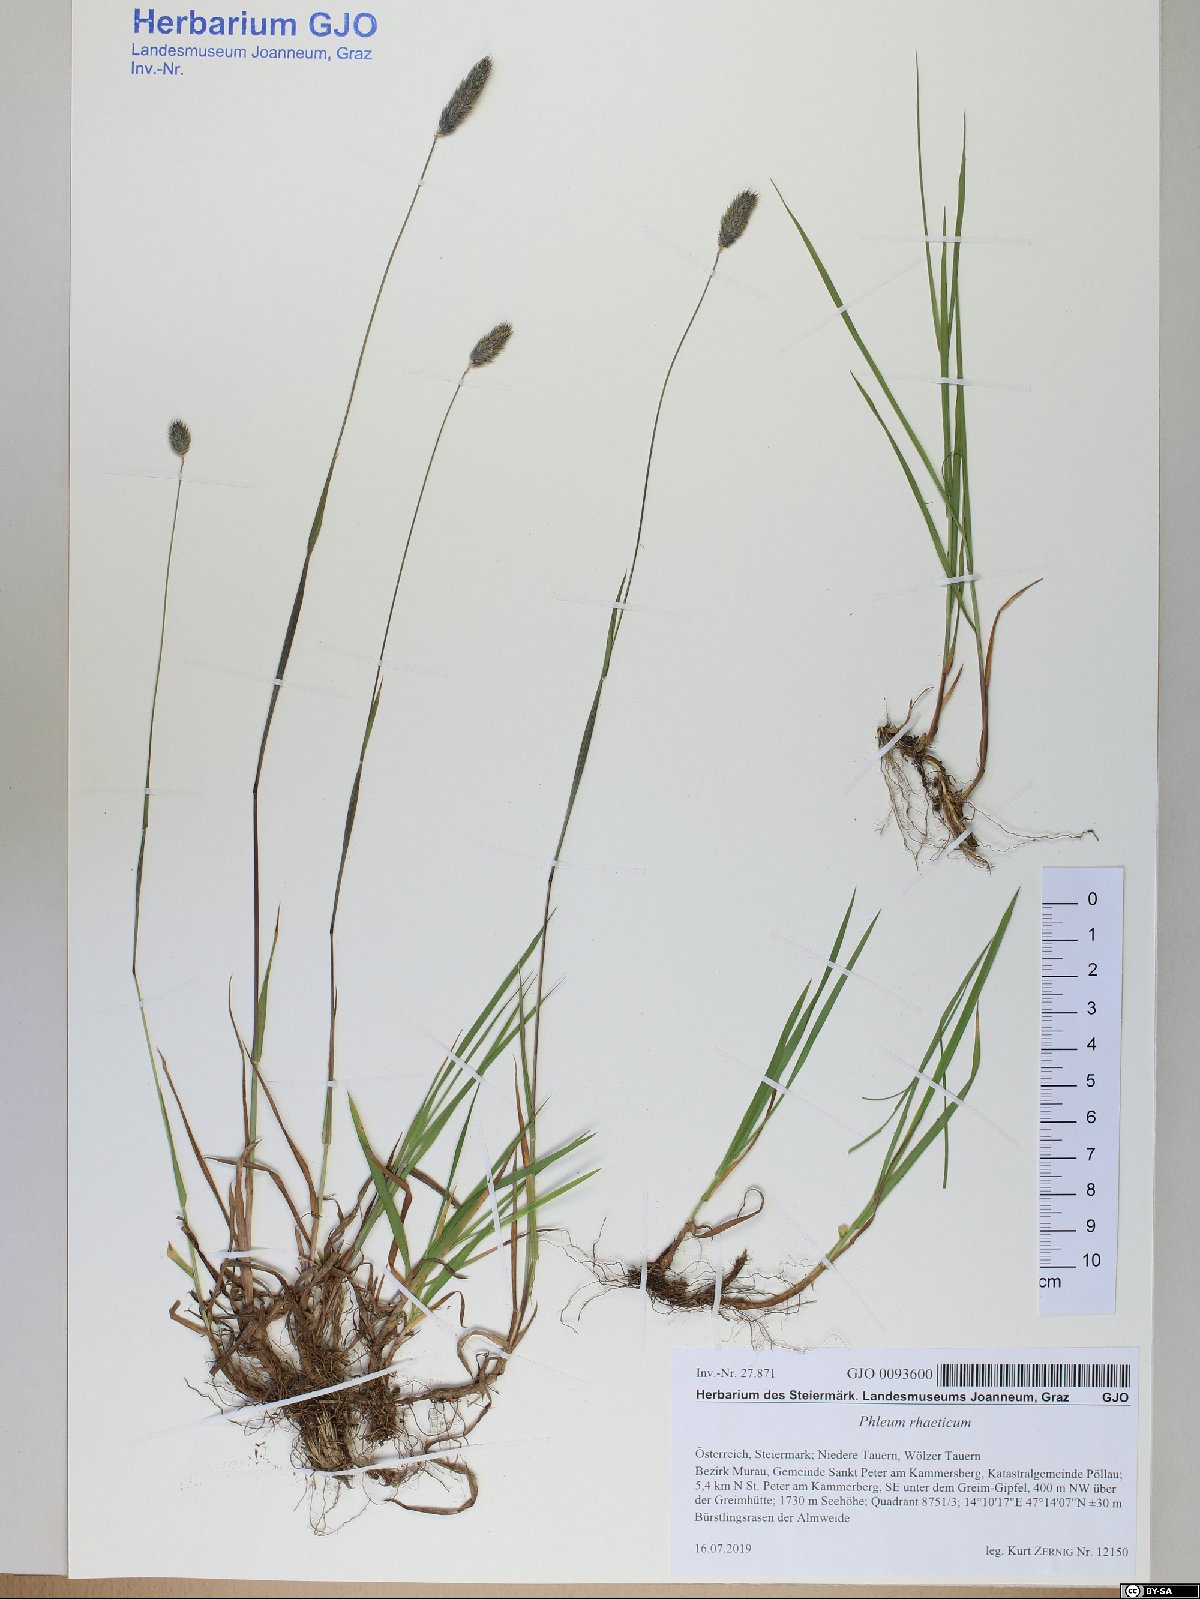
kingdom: Plantae
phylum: Tracheophyta
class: Liliopsida
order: Poales
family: Poaceae
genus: Phleum
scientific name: Phleum alpinum
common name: Alpine cat's-tail
